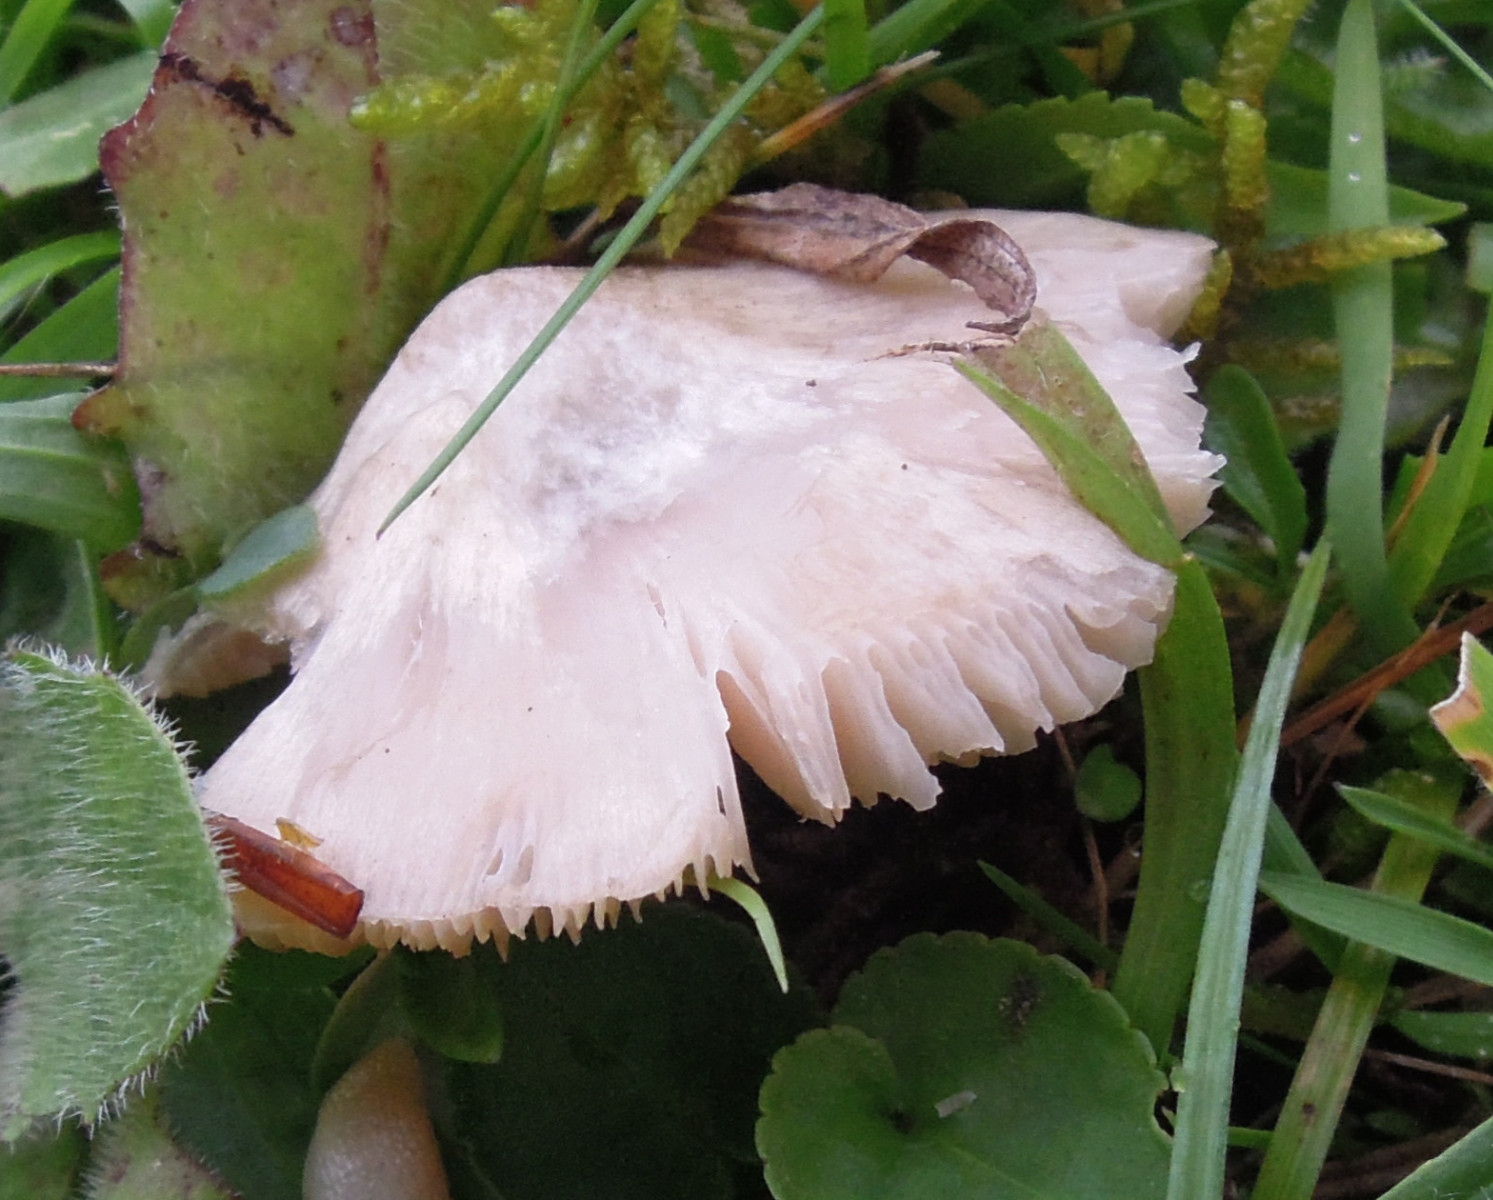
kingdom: Fungi
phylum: Basidiomycota
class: Agaricomycetes
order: Agaricales
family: Entolomataceae
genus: Entoloma
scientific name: Entoloma prunuloides
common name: mel-rødblad
